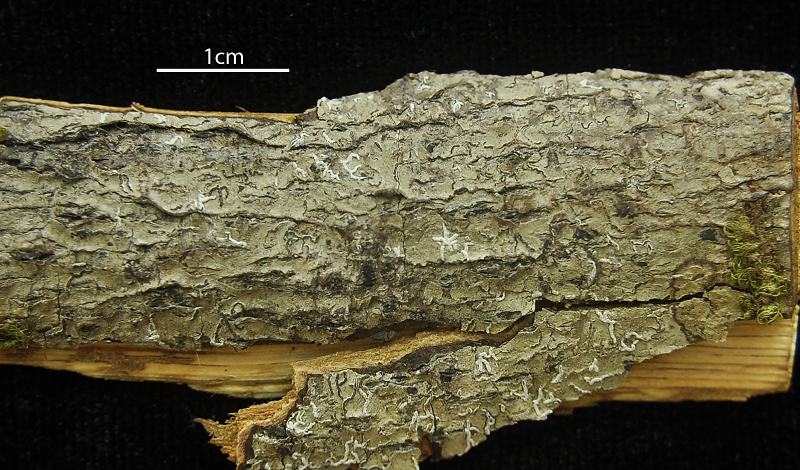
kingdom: Fungi
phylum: Ascomycota
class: Lecanoromycetes
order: Ostropales
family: Graphidaceae
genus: Graphina
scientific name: Graphina marcescens
